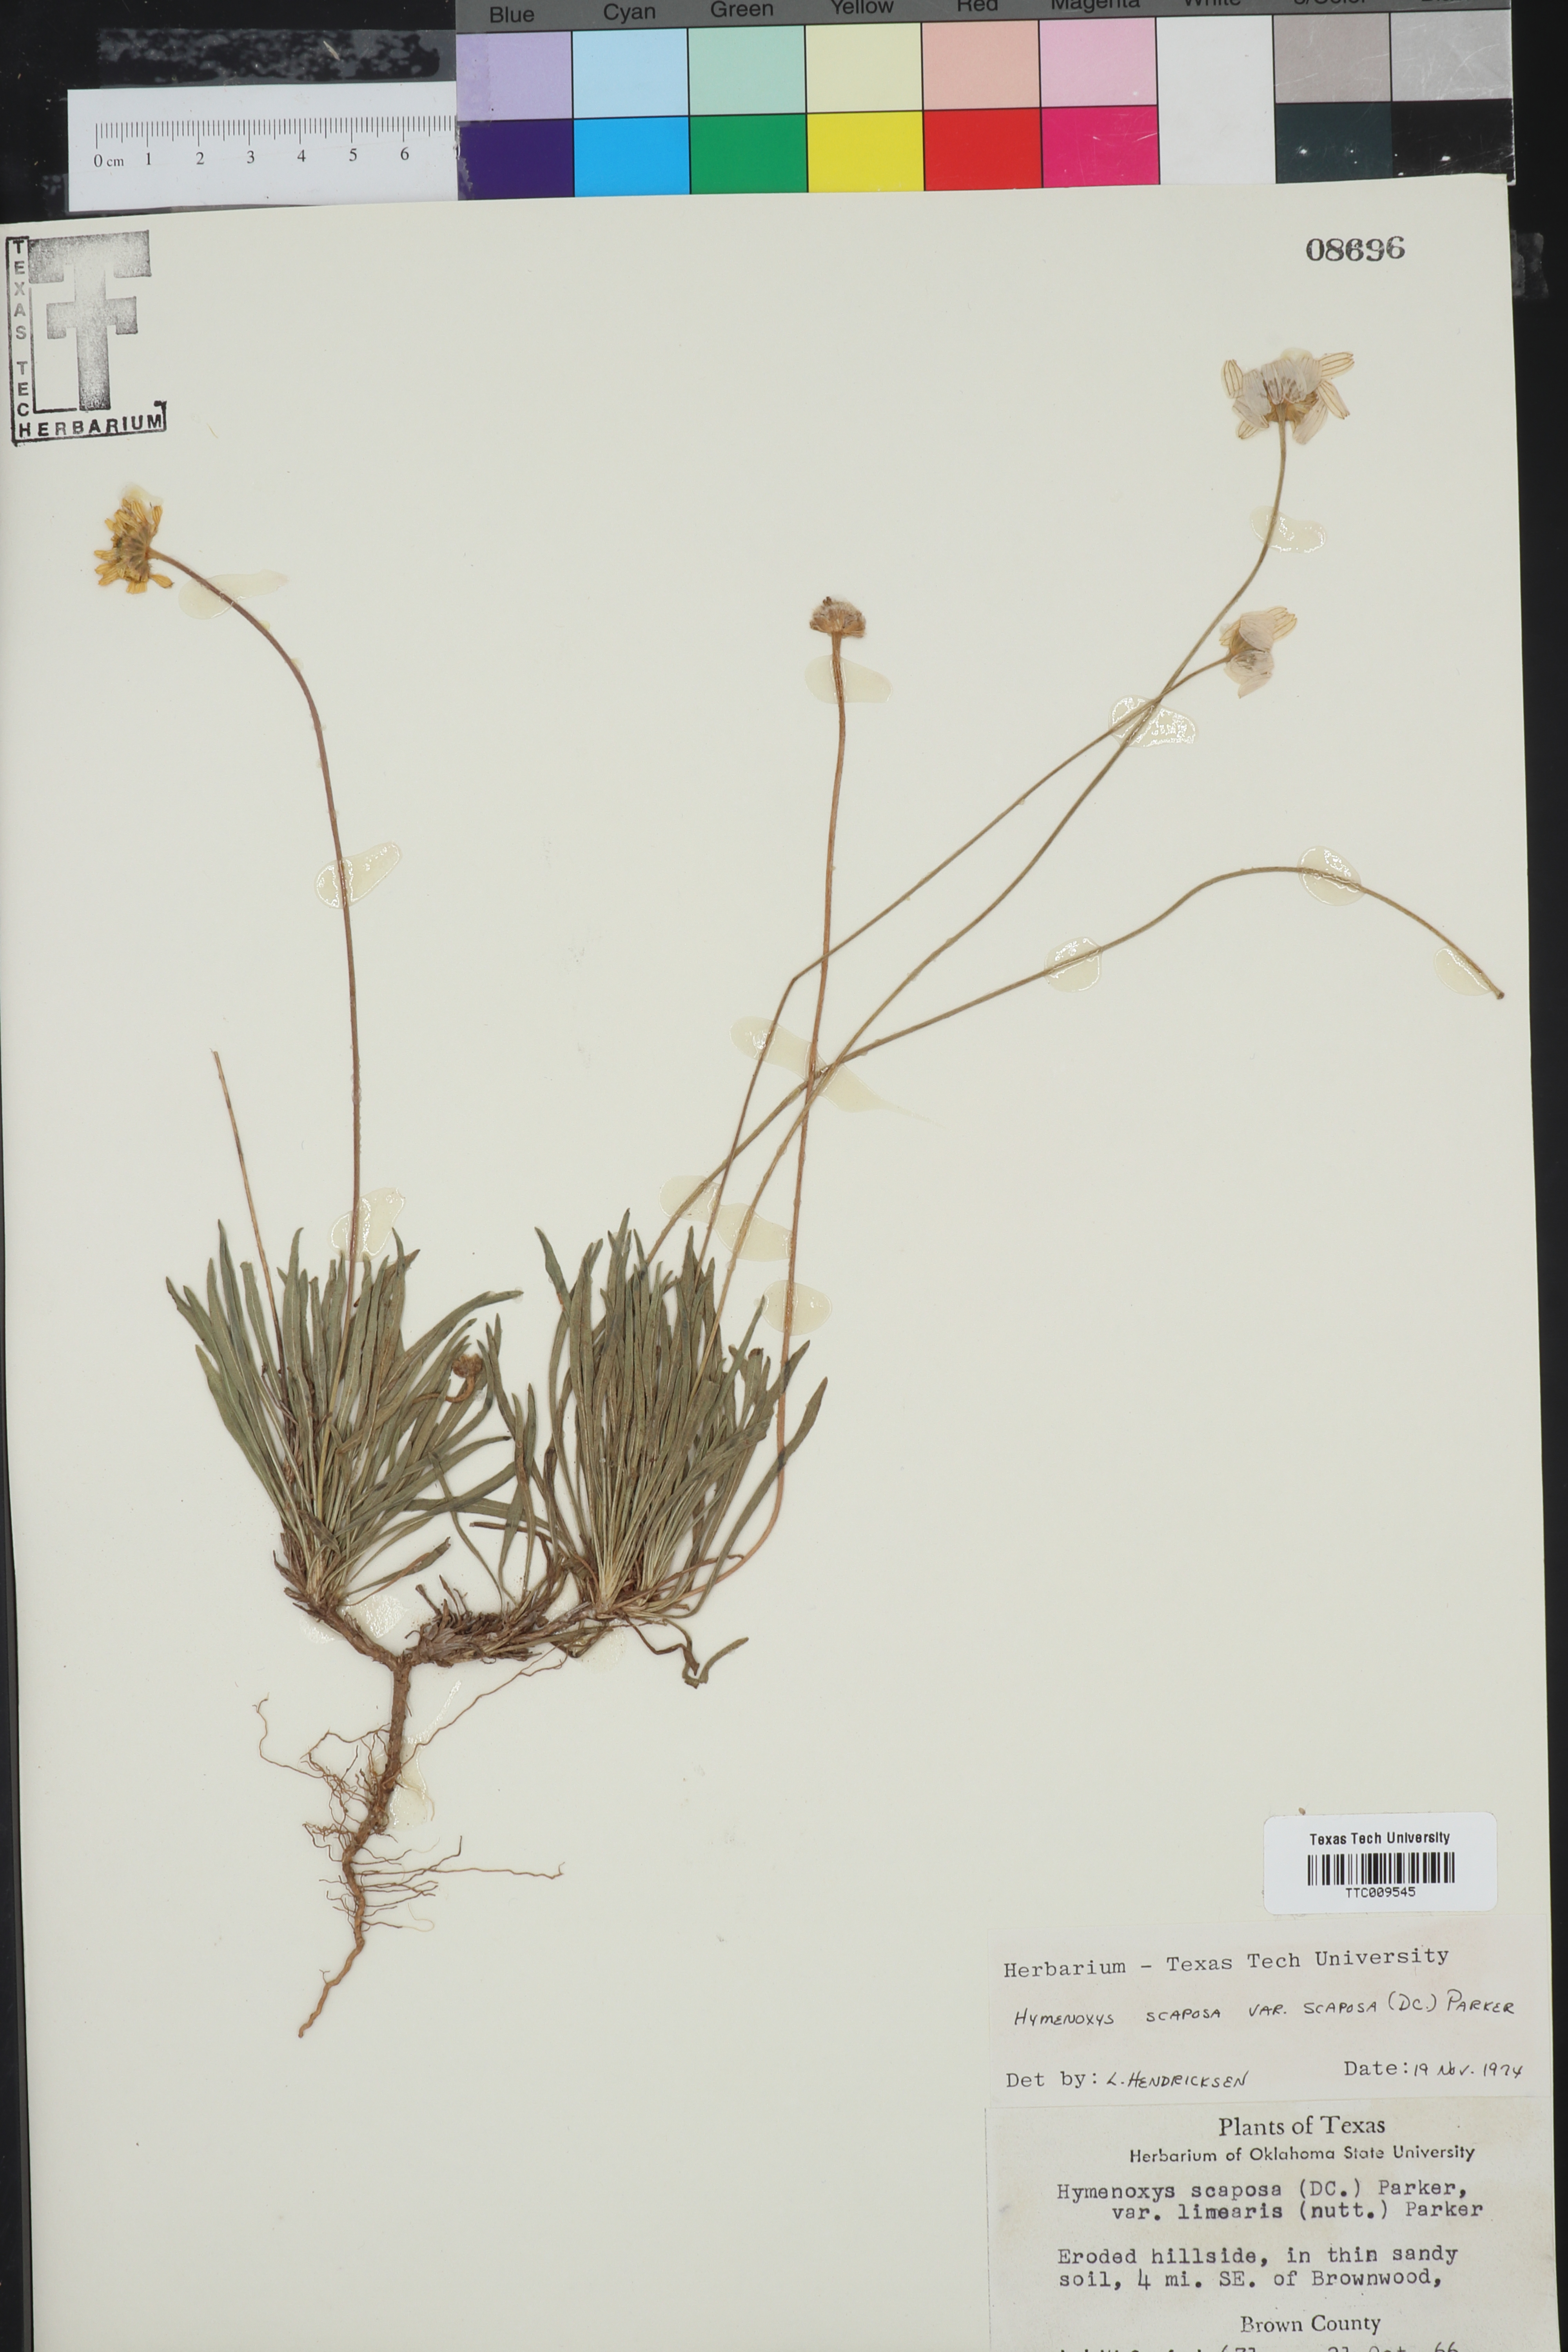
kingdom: Plantae
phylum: Tracheophyta
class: Magnoliopsida
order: Asterales
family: Asteraceae
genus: Tetraneuris
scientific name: Tetraneuris scaposa
